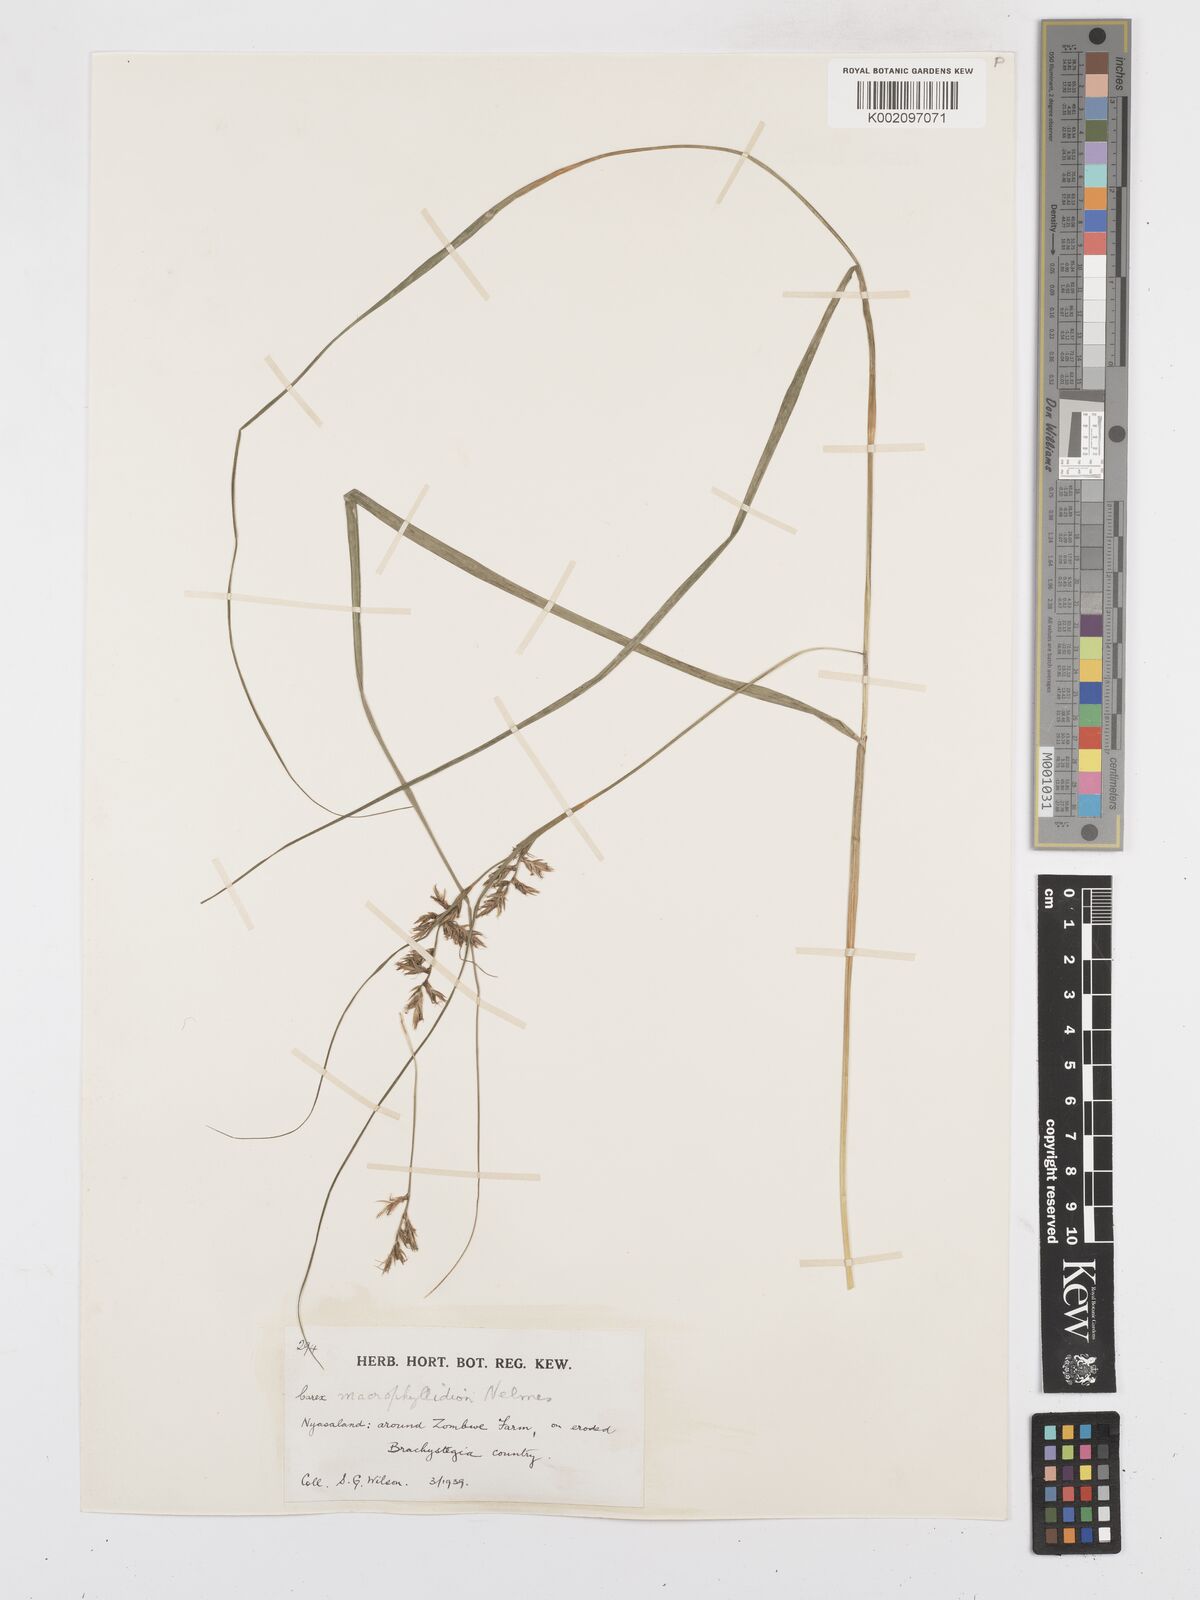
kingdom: Plantae
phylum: Tracheophyta
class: Liliopsida
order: Poales
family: Cyperaceae
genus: Carex
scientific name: Carex macrophyllidion
